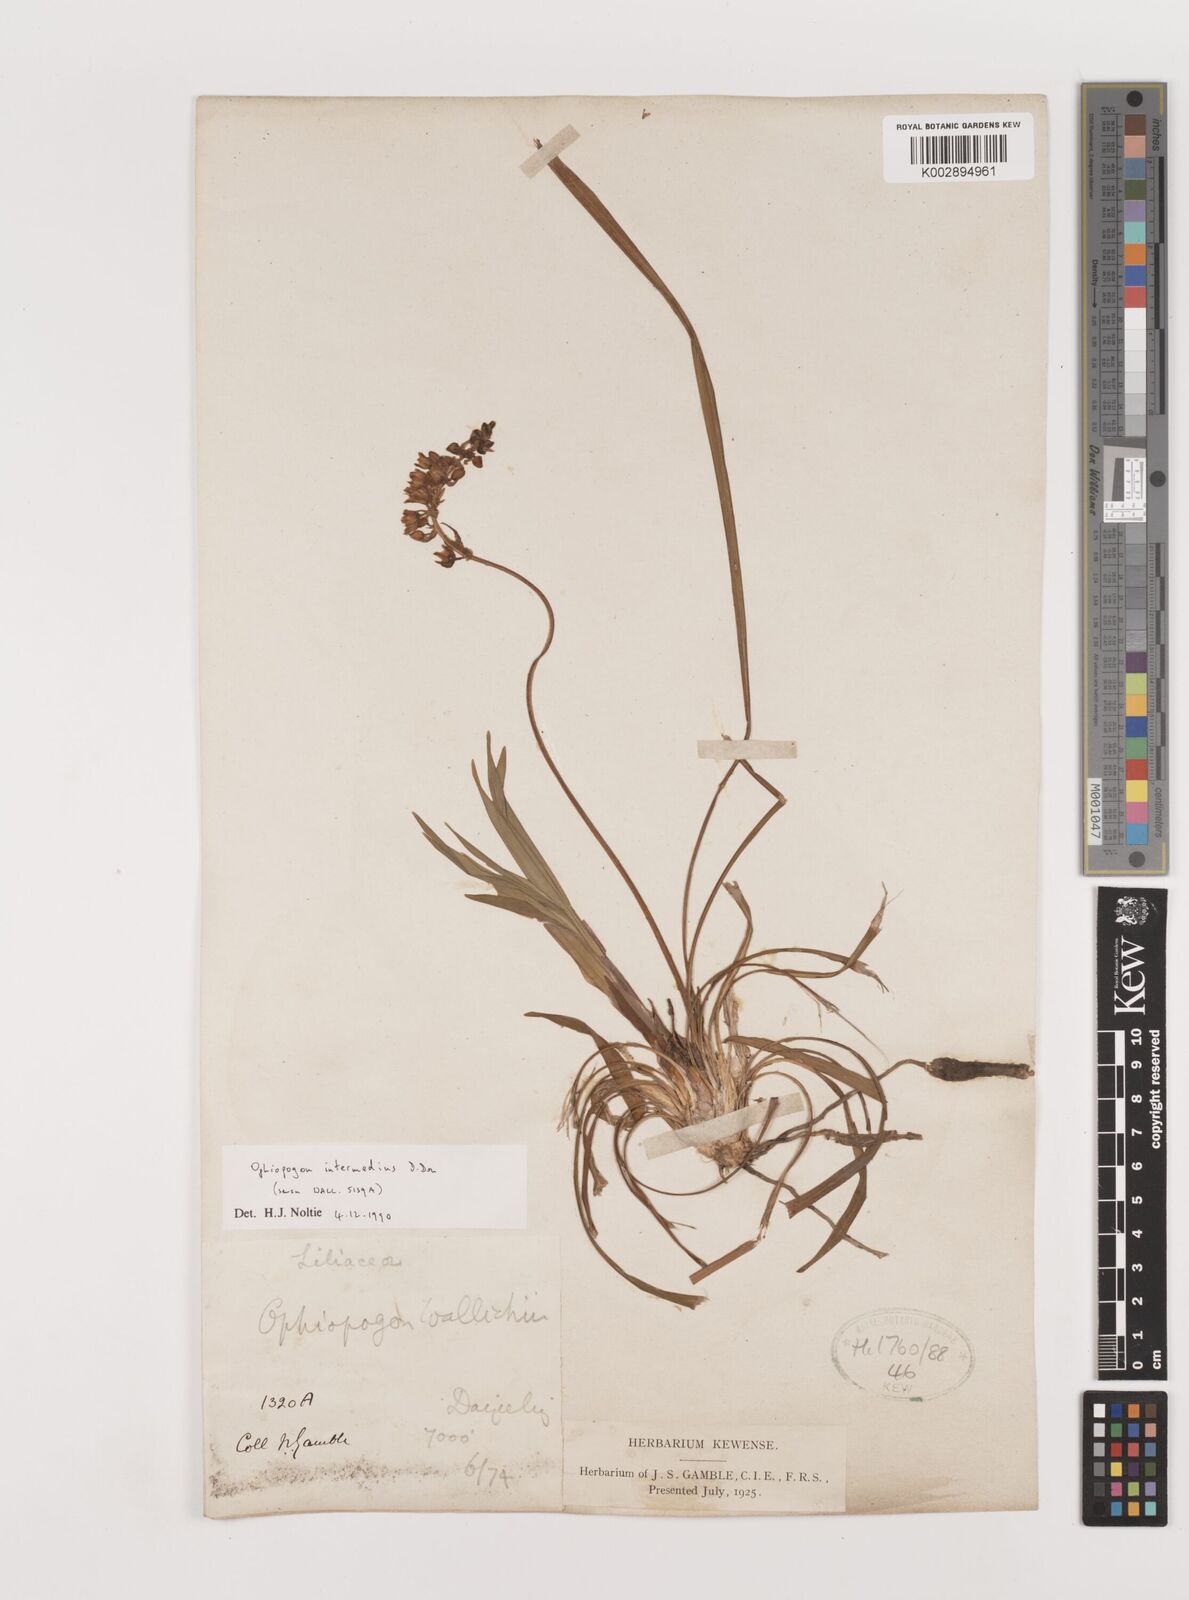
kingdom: Plantae
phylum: Tracheophyta
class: Liliopsida
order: Asparagales
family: Asparagaceae
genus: Ophiopogon
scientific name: Ophiopogon intermedius
